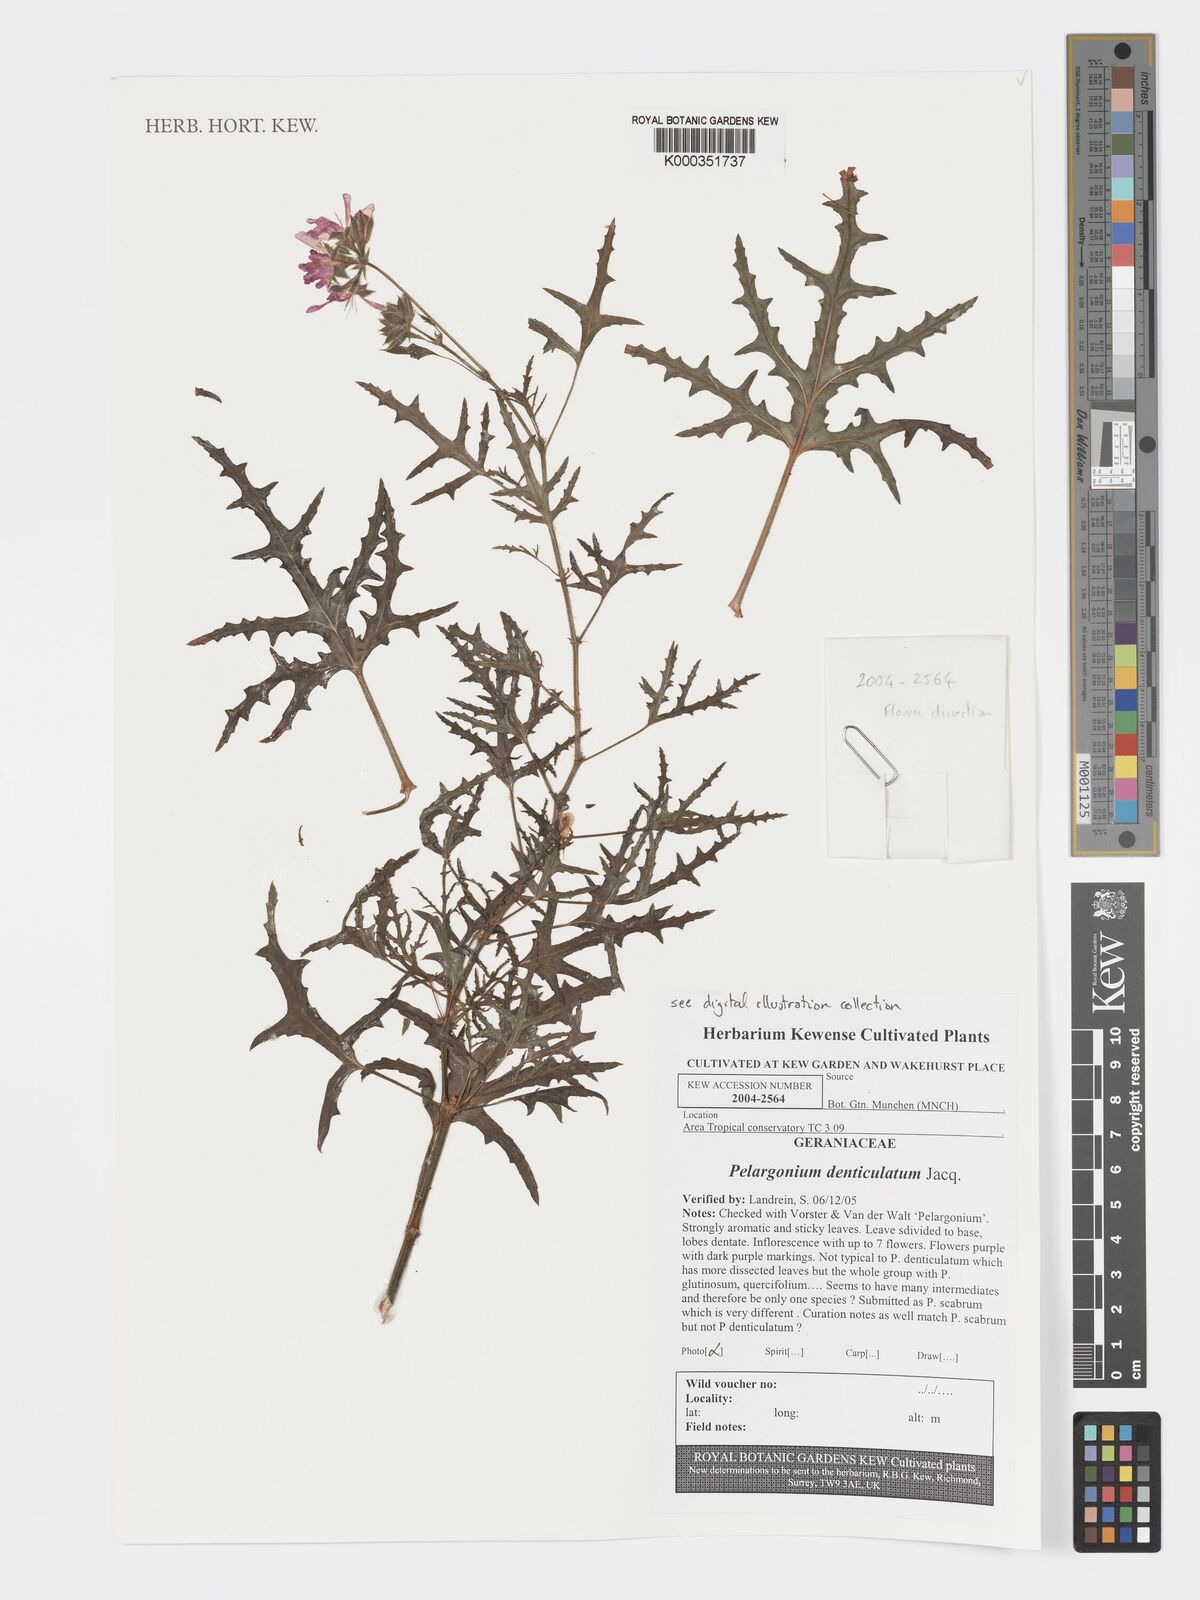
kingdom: Plantae
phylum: Tracheophyta
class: Magnoliopsida
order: Geraniales
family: Geraniaceae
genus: Pelargonium
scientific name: Pelargonium denticulatum
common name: Pine geranium
